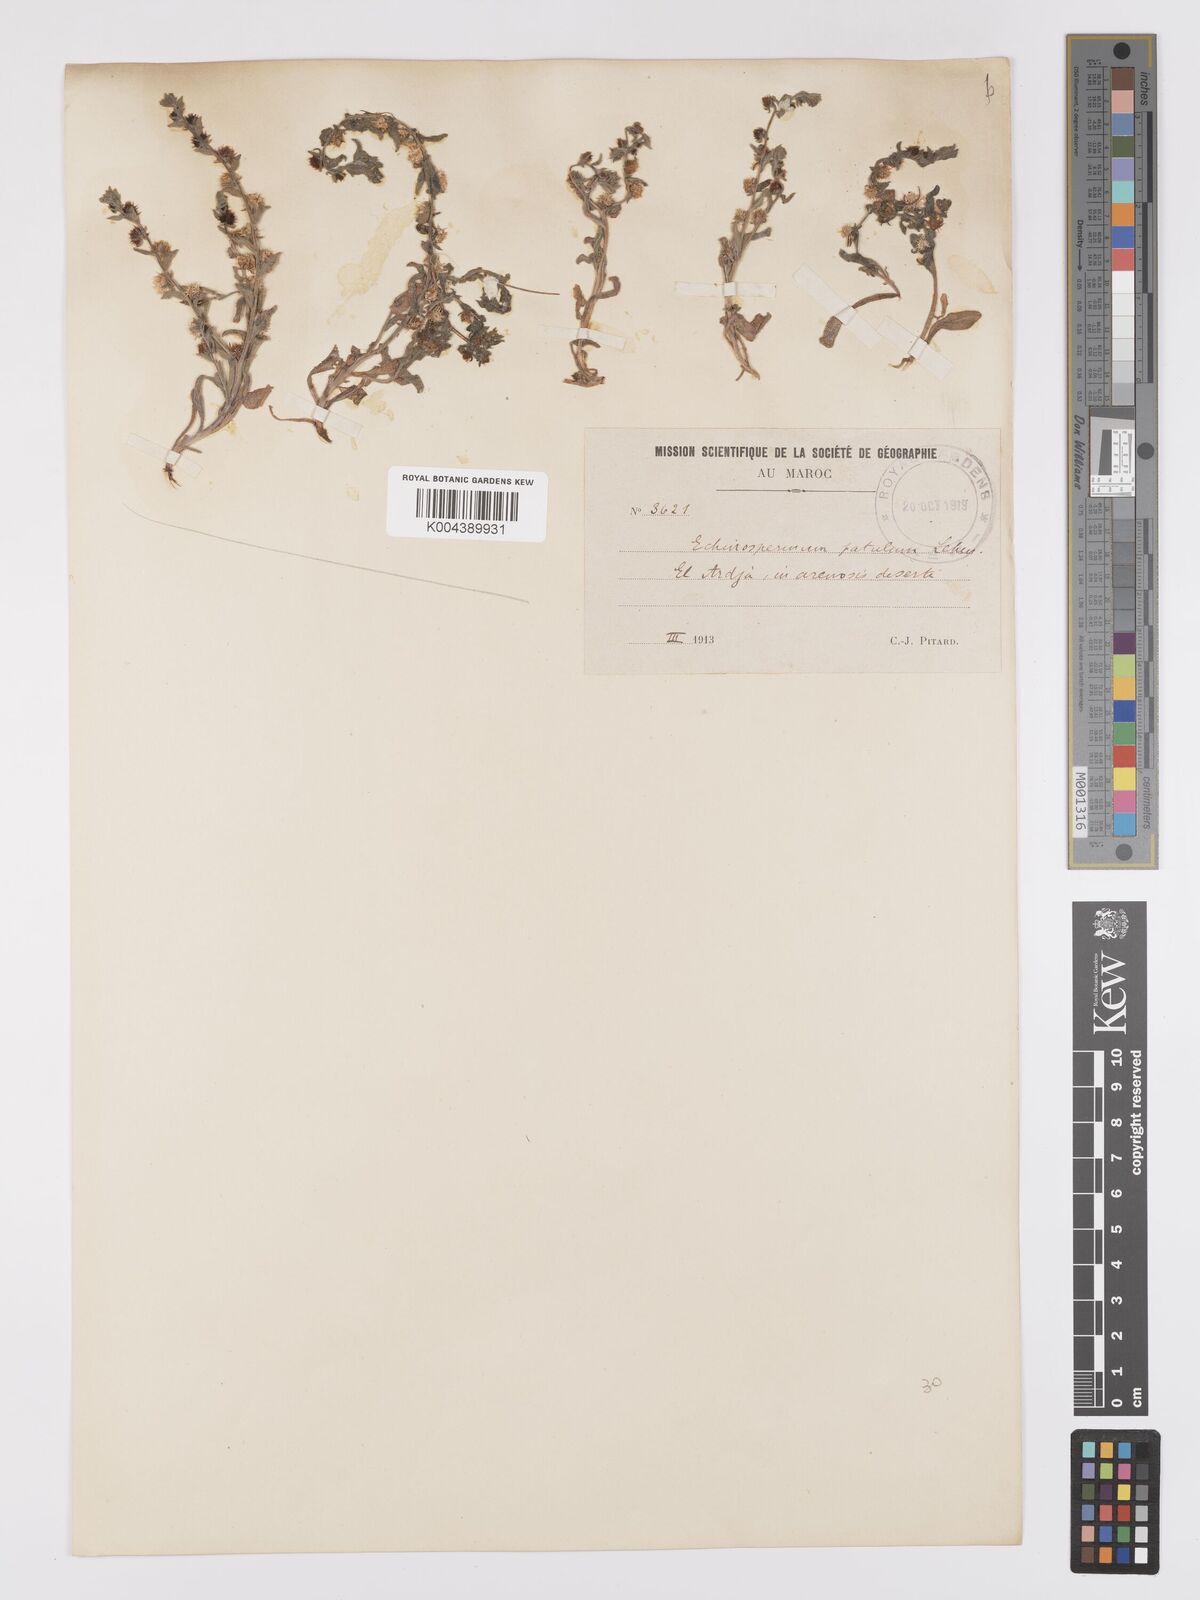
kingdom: Plantae
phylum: Tracheophyta
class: Magnoliopsida
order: Boraginales
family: Boraginaceae
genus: Lappula
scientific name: Lappula patula
